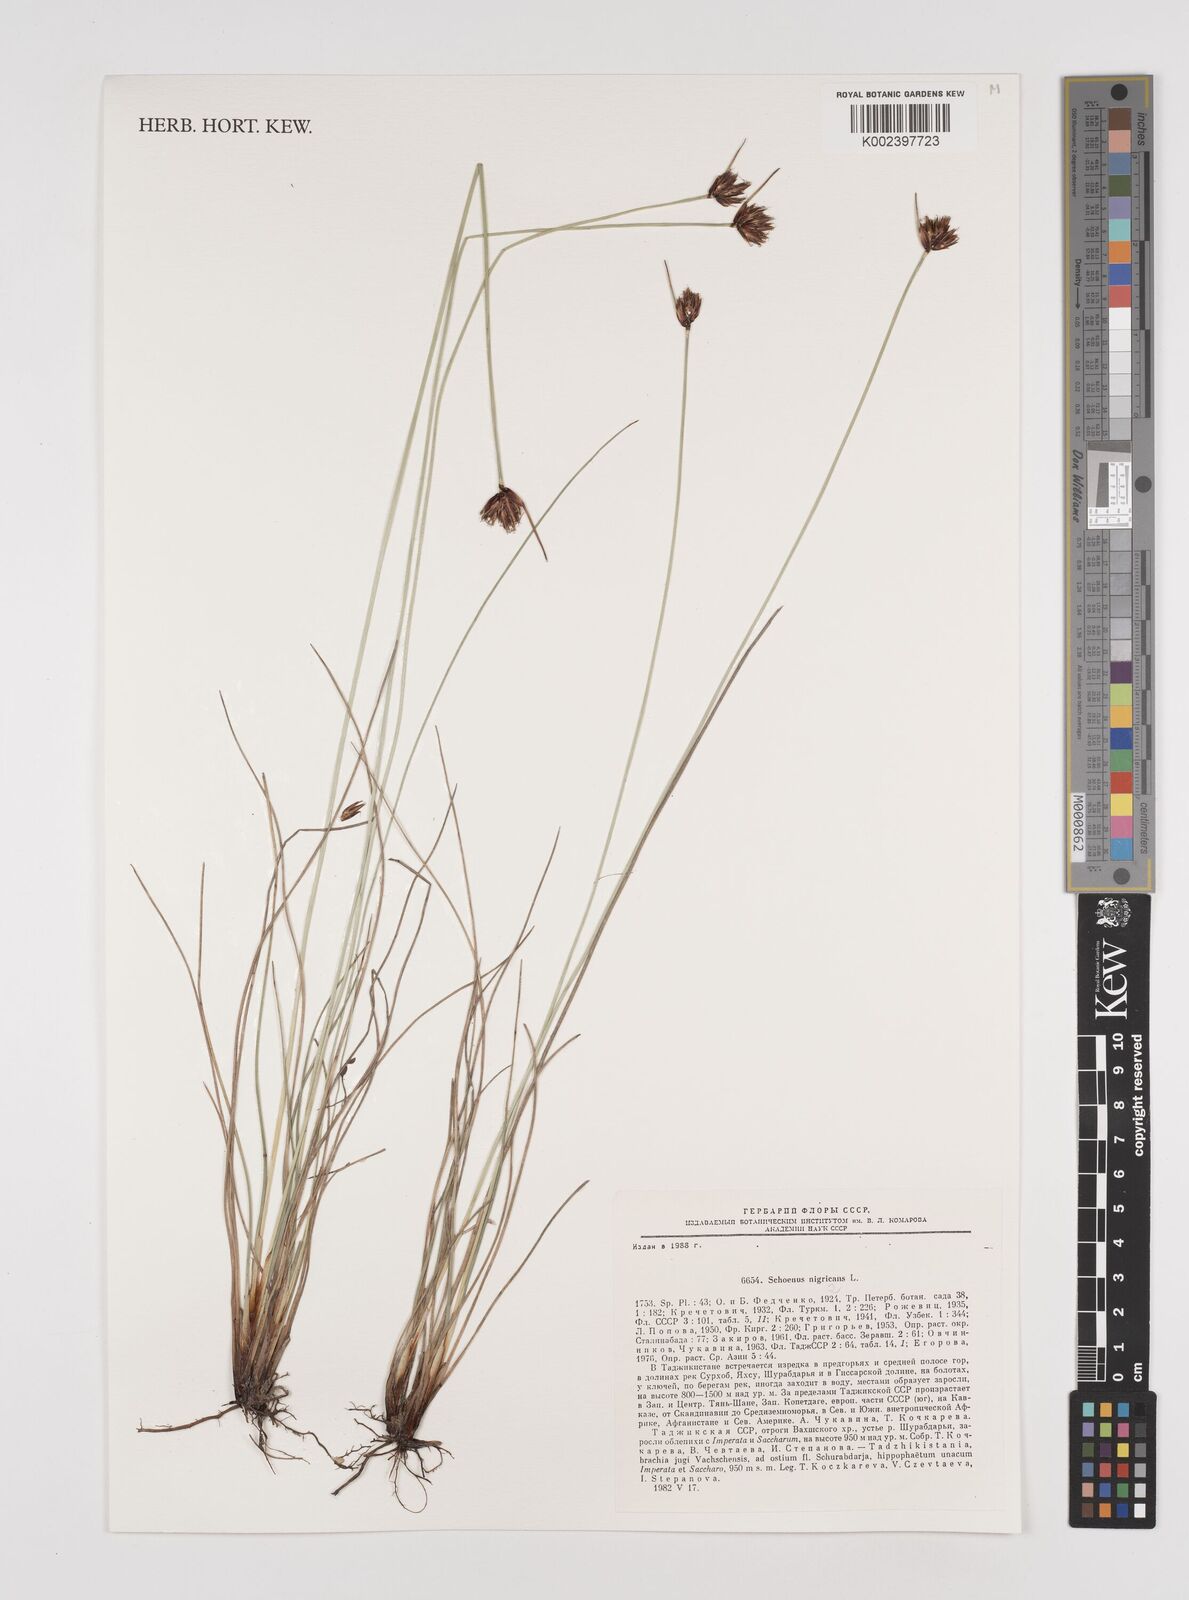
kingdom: Plantae
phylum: Tracheophyta
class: Liliopsida
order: Poales
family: Cyperaceae
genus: Schoenus
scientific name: Schoenus nigricans
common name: Black bog-rush
